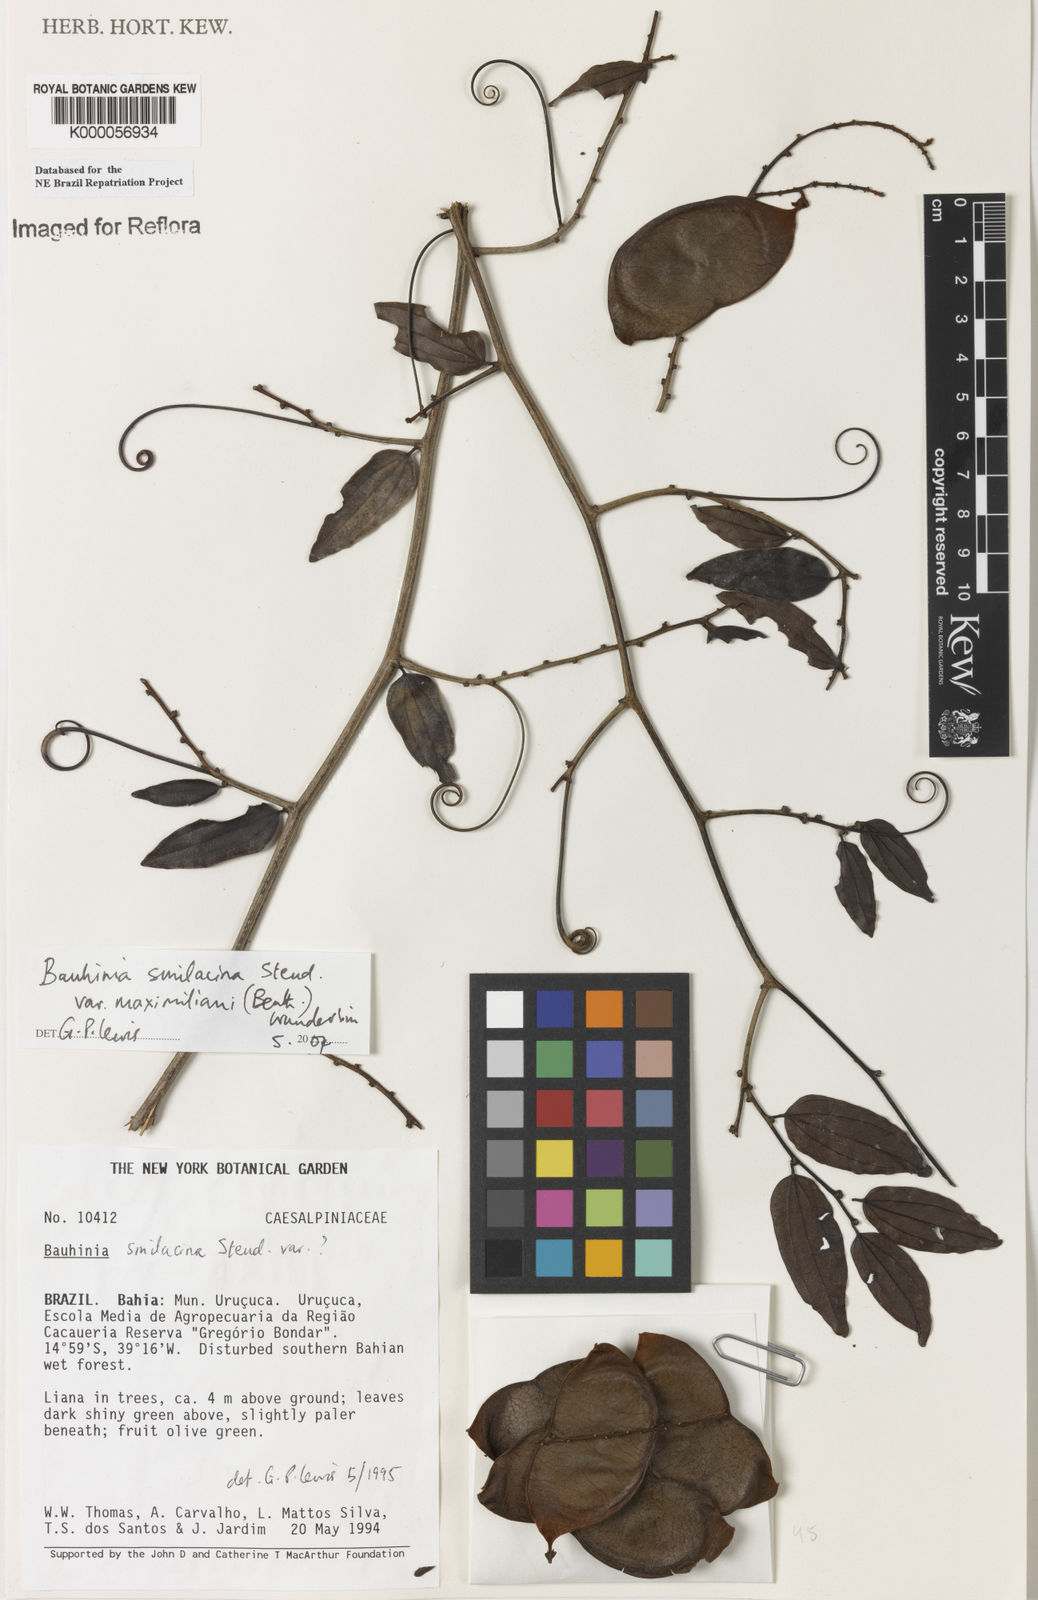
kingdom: Plantae
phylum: Tracheophyta
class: Magnoliopsida
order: Fabales
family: Fabaceae
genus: Schnella
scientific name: Schnella smilacina
